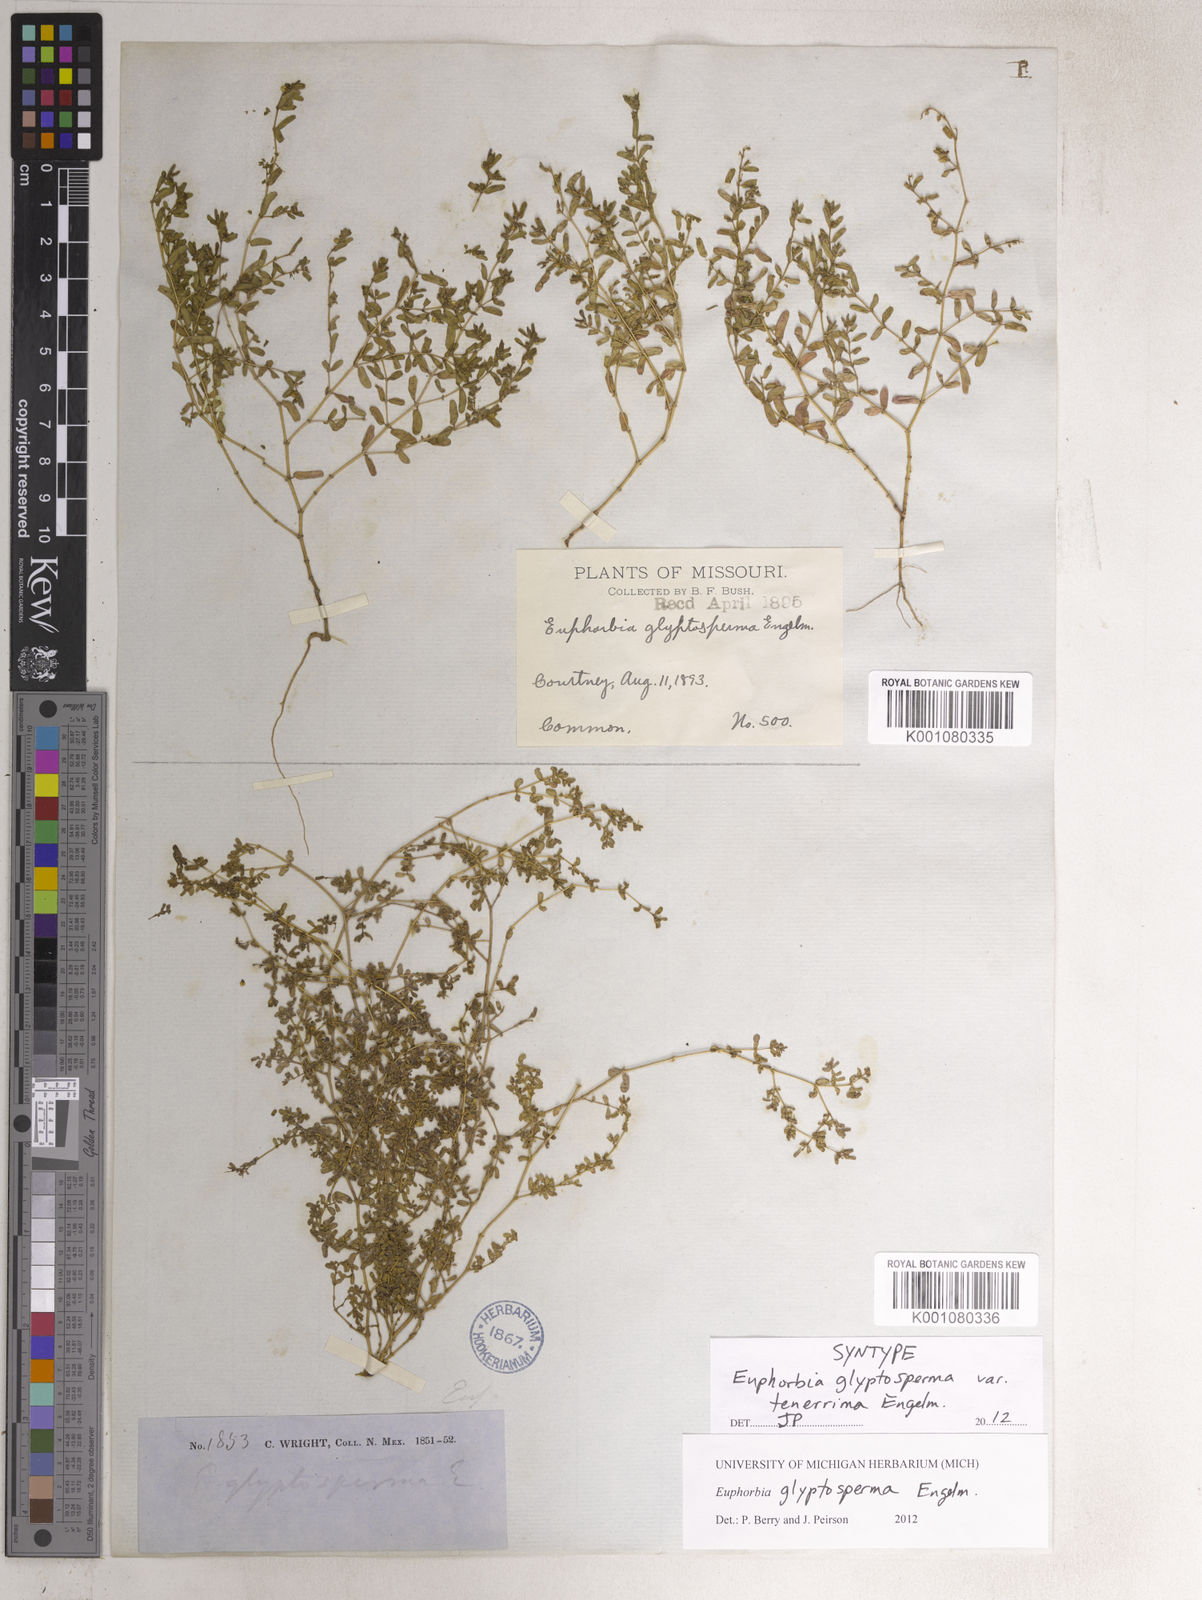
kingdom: Plantae
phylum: Tracheophyta
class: Magnoliopsida
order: Malpighiales
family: Euphorbiaceae
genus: Euphorbia
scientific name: Euphorbia glyptosperma
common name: Corrugate-seeded spurge
